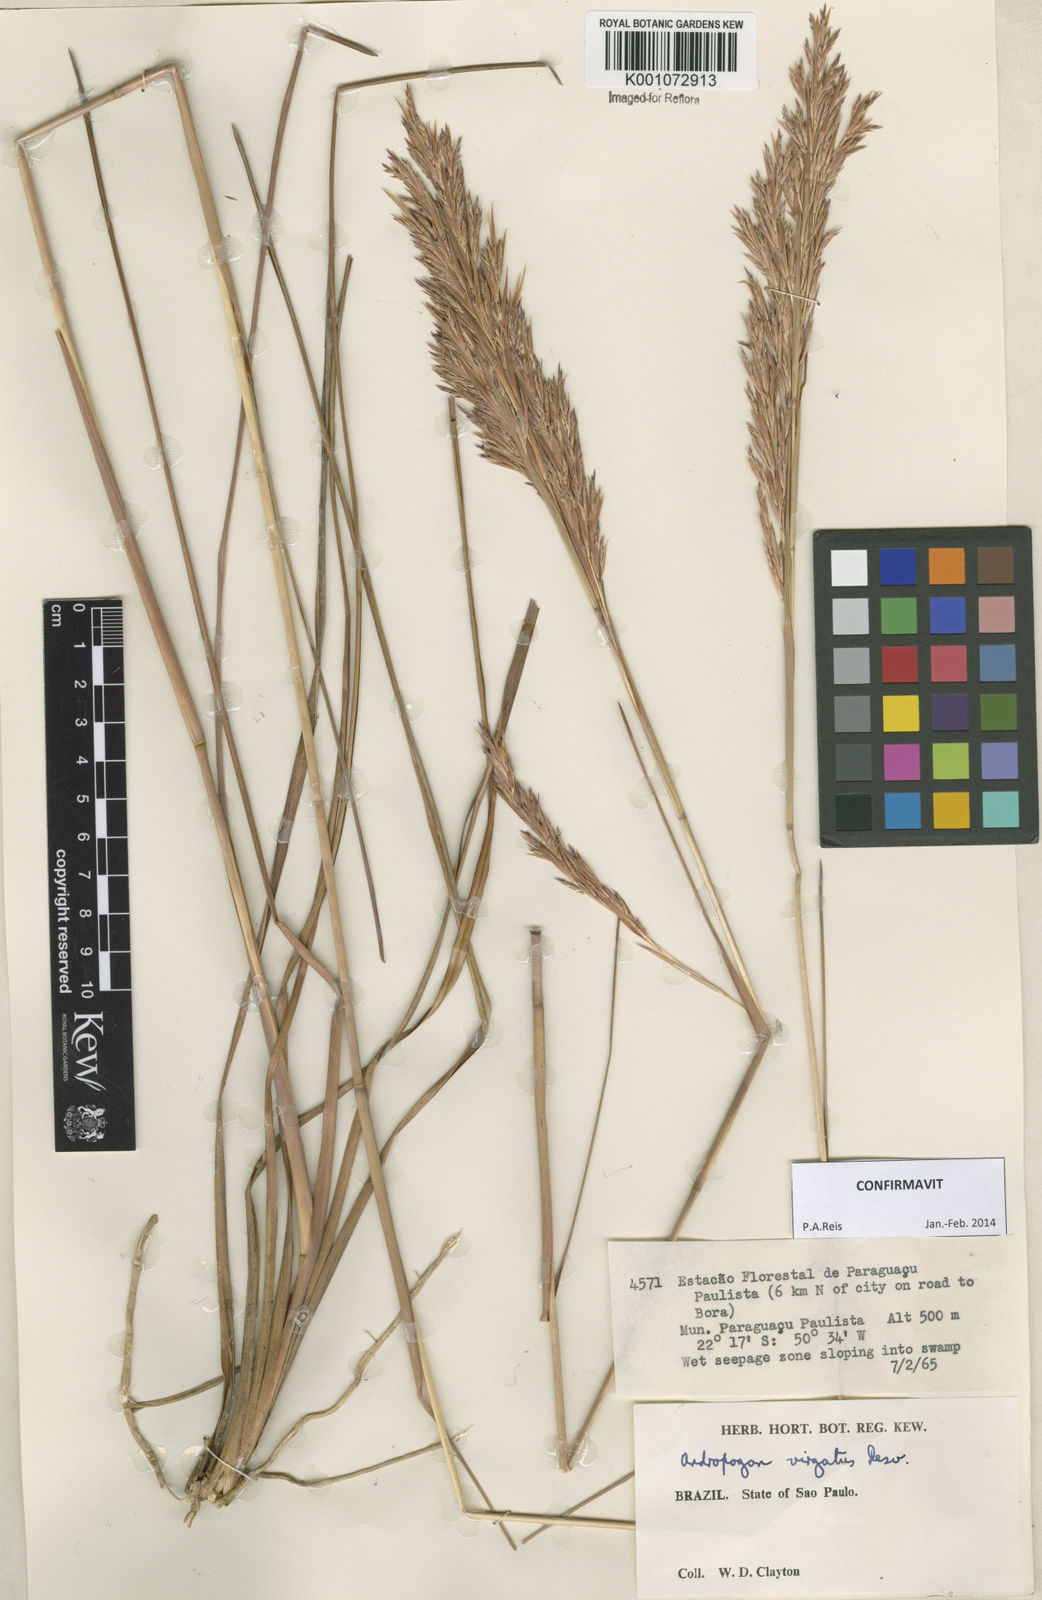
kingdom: Plantae
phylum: Tracheophyta
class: Liliopsida
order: Poales
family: Poaceae
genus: Andropogon
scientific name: Andropogon virgatus
